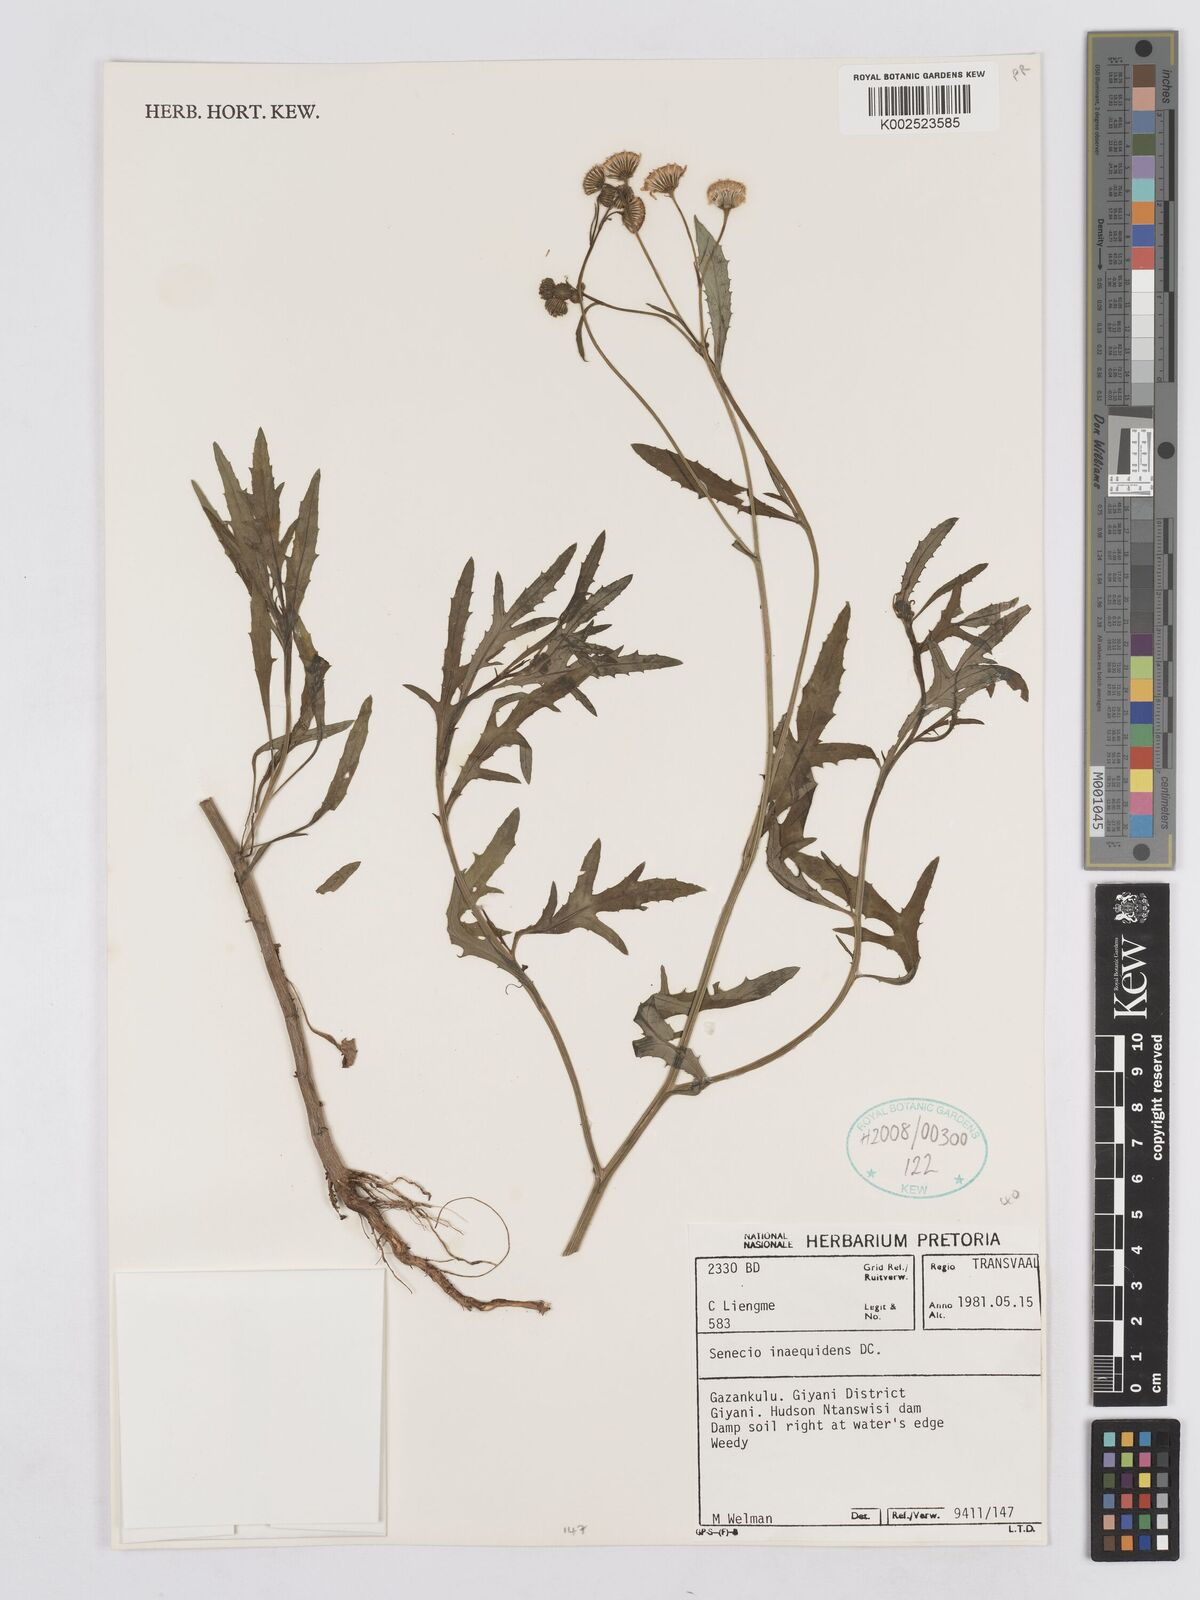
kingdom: Plantae
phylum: Tracheophyta
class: Magnoliopsida
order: Asterales
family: Asteraceae
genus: Senecio
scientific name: Senecio inaequidens
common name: Narrow-leaved ragwort
